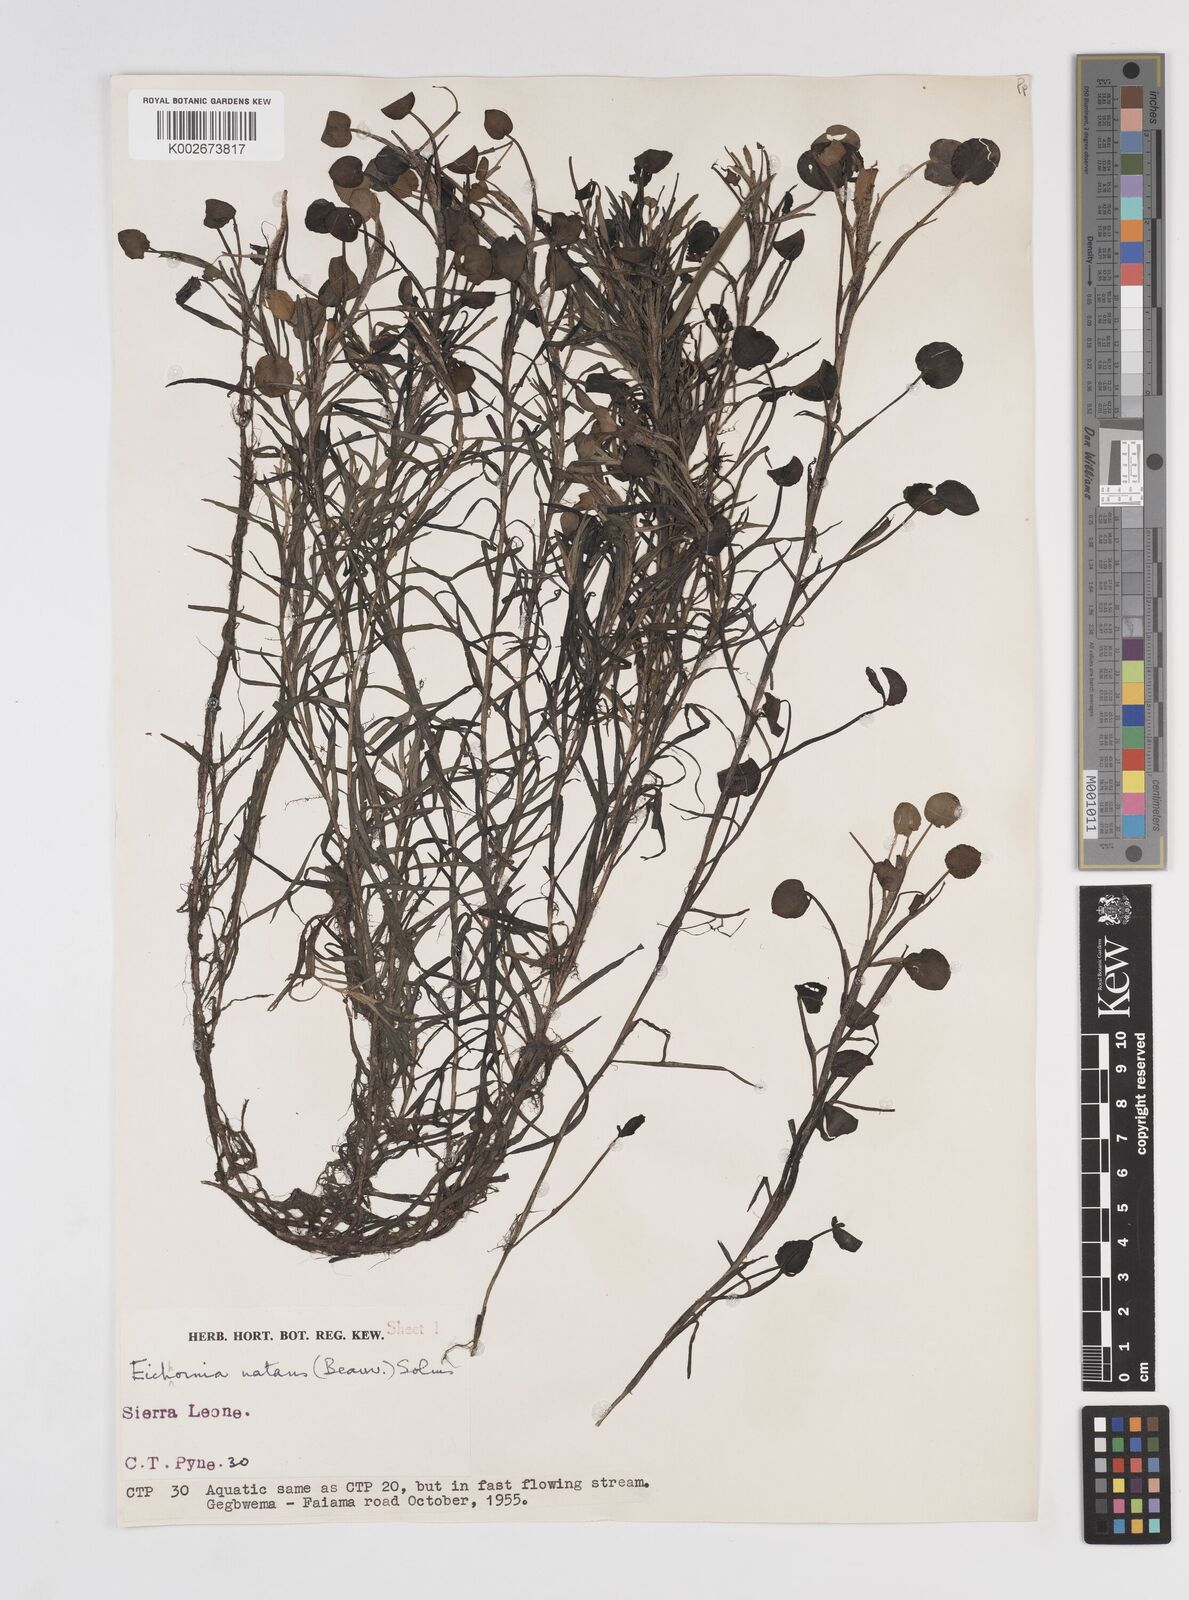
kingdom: Plantae
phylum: Tracheophyta
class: Liliopsida
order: Commelinales
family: Pontederiaceae
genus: Pontederia
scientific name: Pontederia diversifolia
